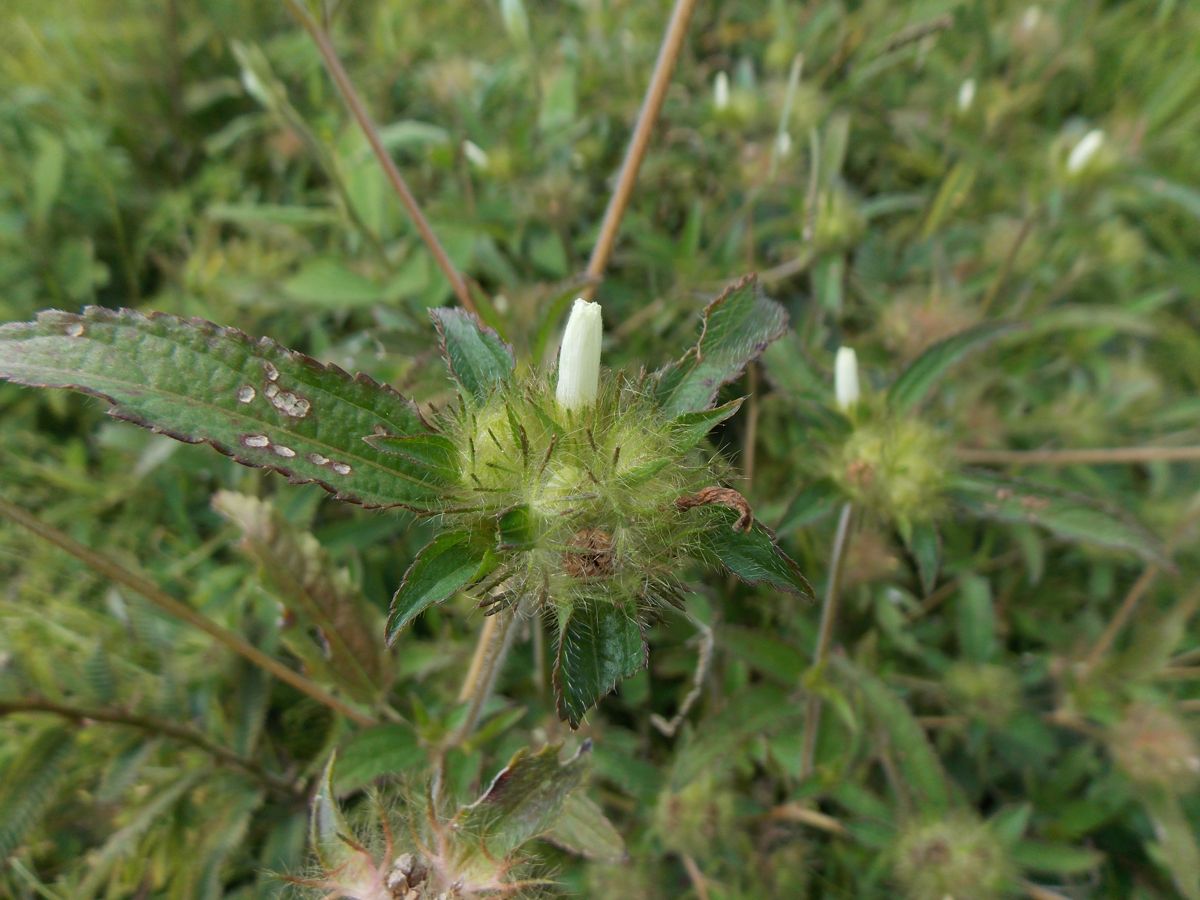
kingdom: Plantae
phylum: Tracheophyta
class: Magnoliopsida
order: Malvales
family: Malvaceae
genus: Malachra
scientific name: Malachra
